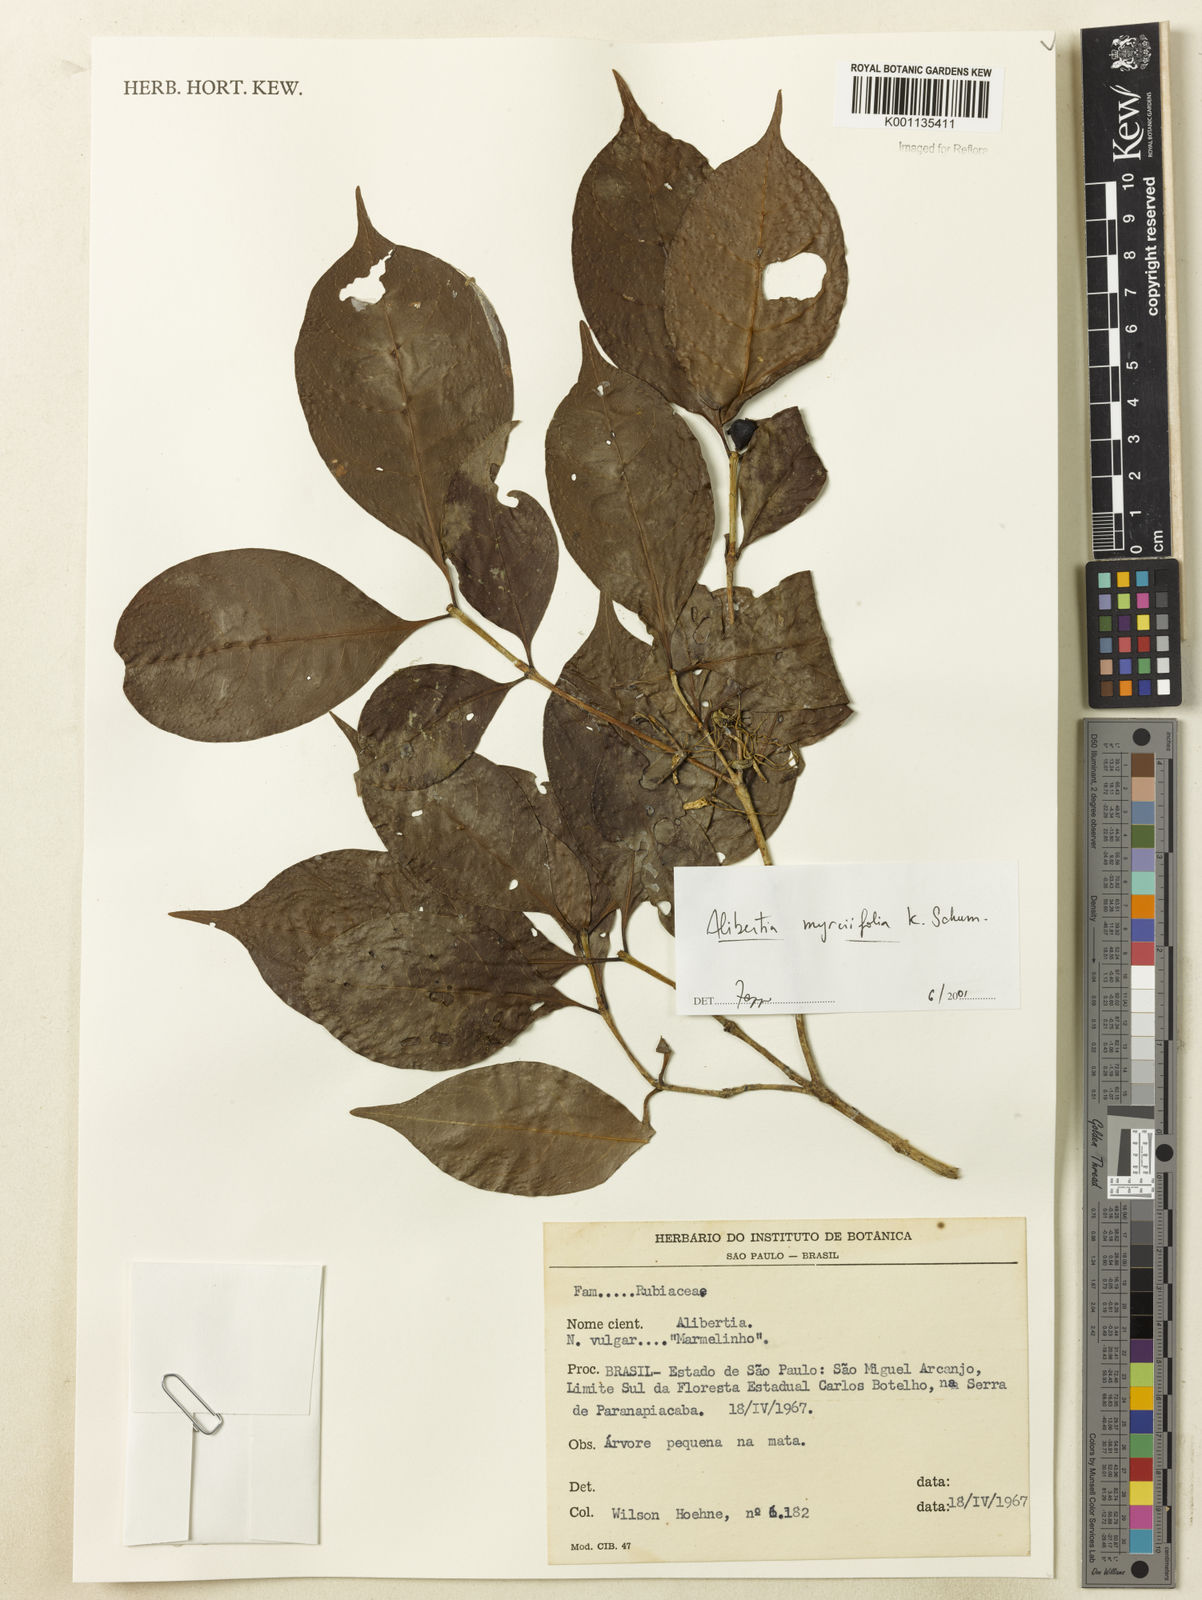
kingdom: Plantae
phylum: Tracheophyta
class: Magnoliopsida
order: Gentianales
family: Rubiaceae
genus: Cordiera
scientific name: Cordiera myrciifolia
